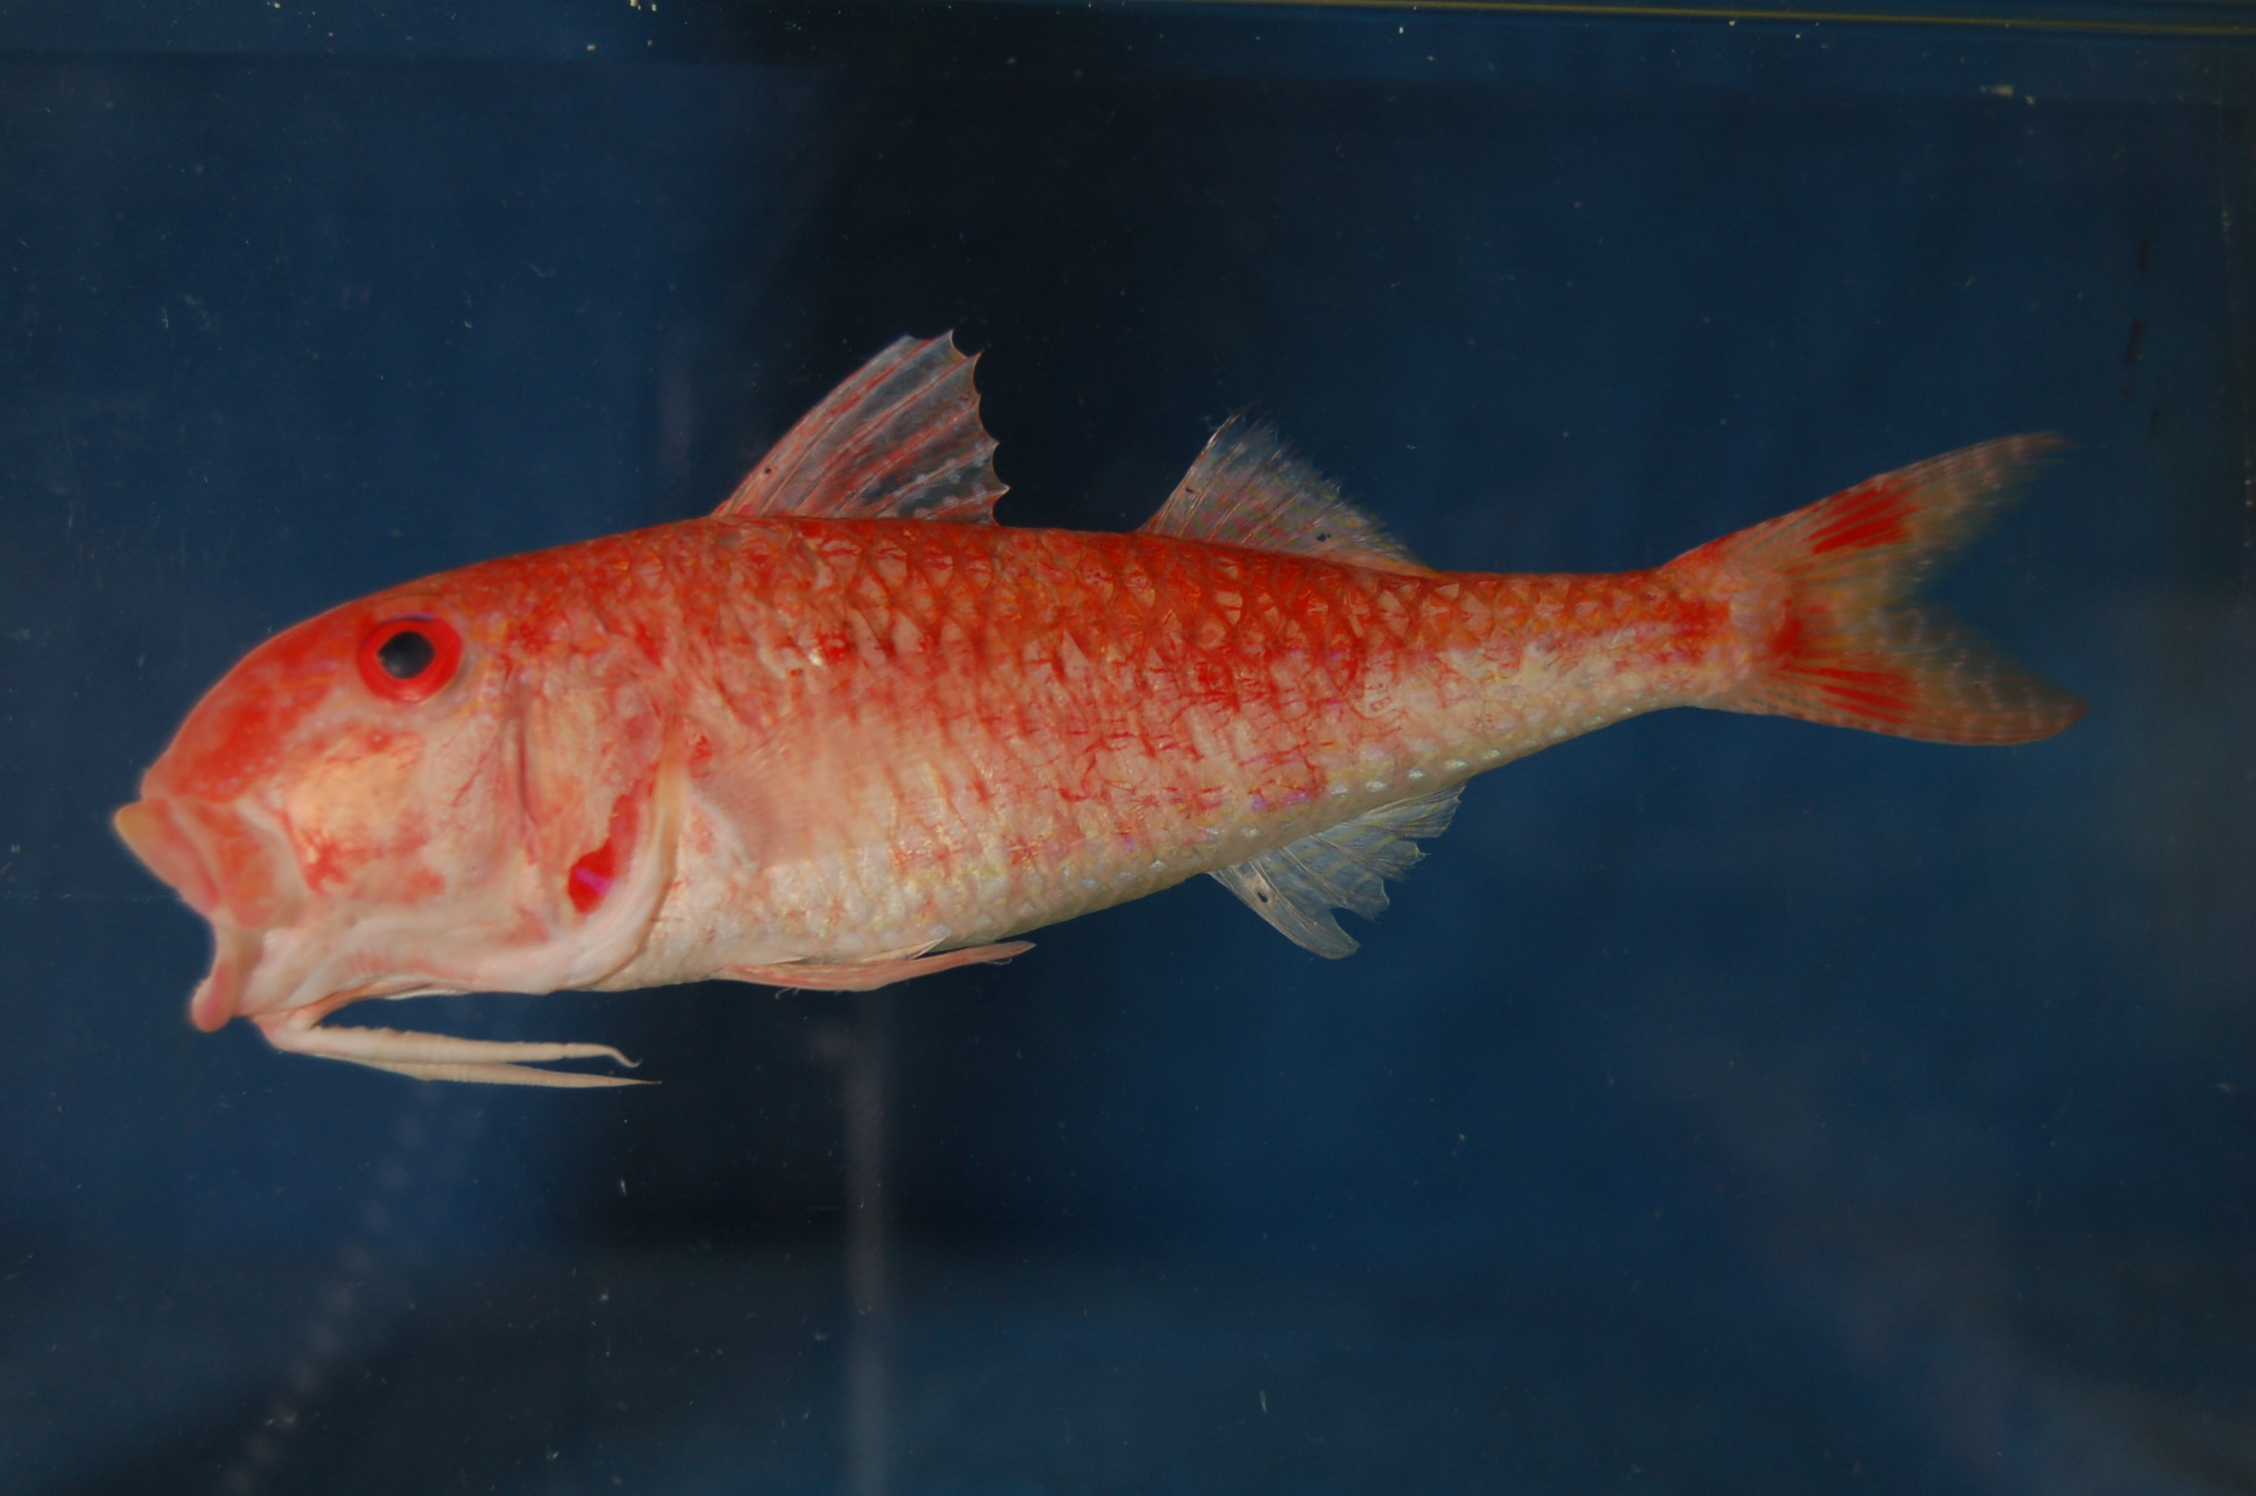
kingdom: Animalia
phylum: Chordata
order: Perciformes
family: Mullidae
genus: Parupeneus
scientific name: Parupeneus heptacanthus
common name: Cinnabar goatfish
